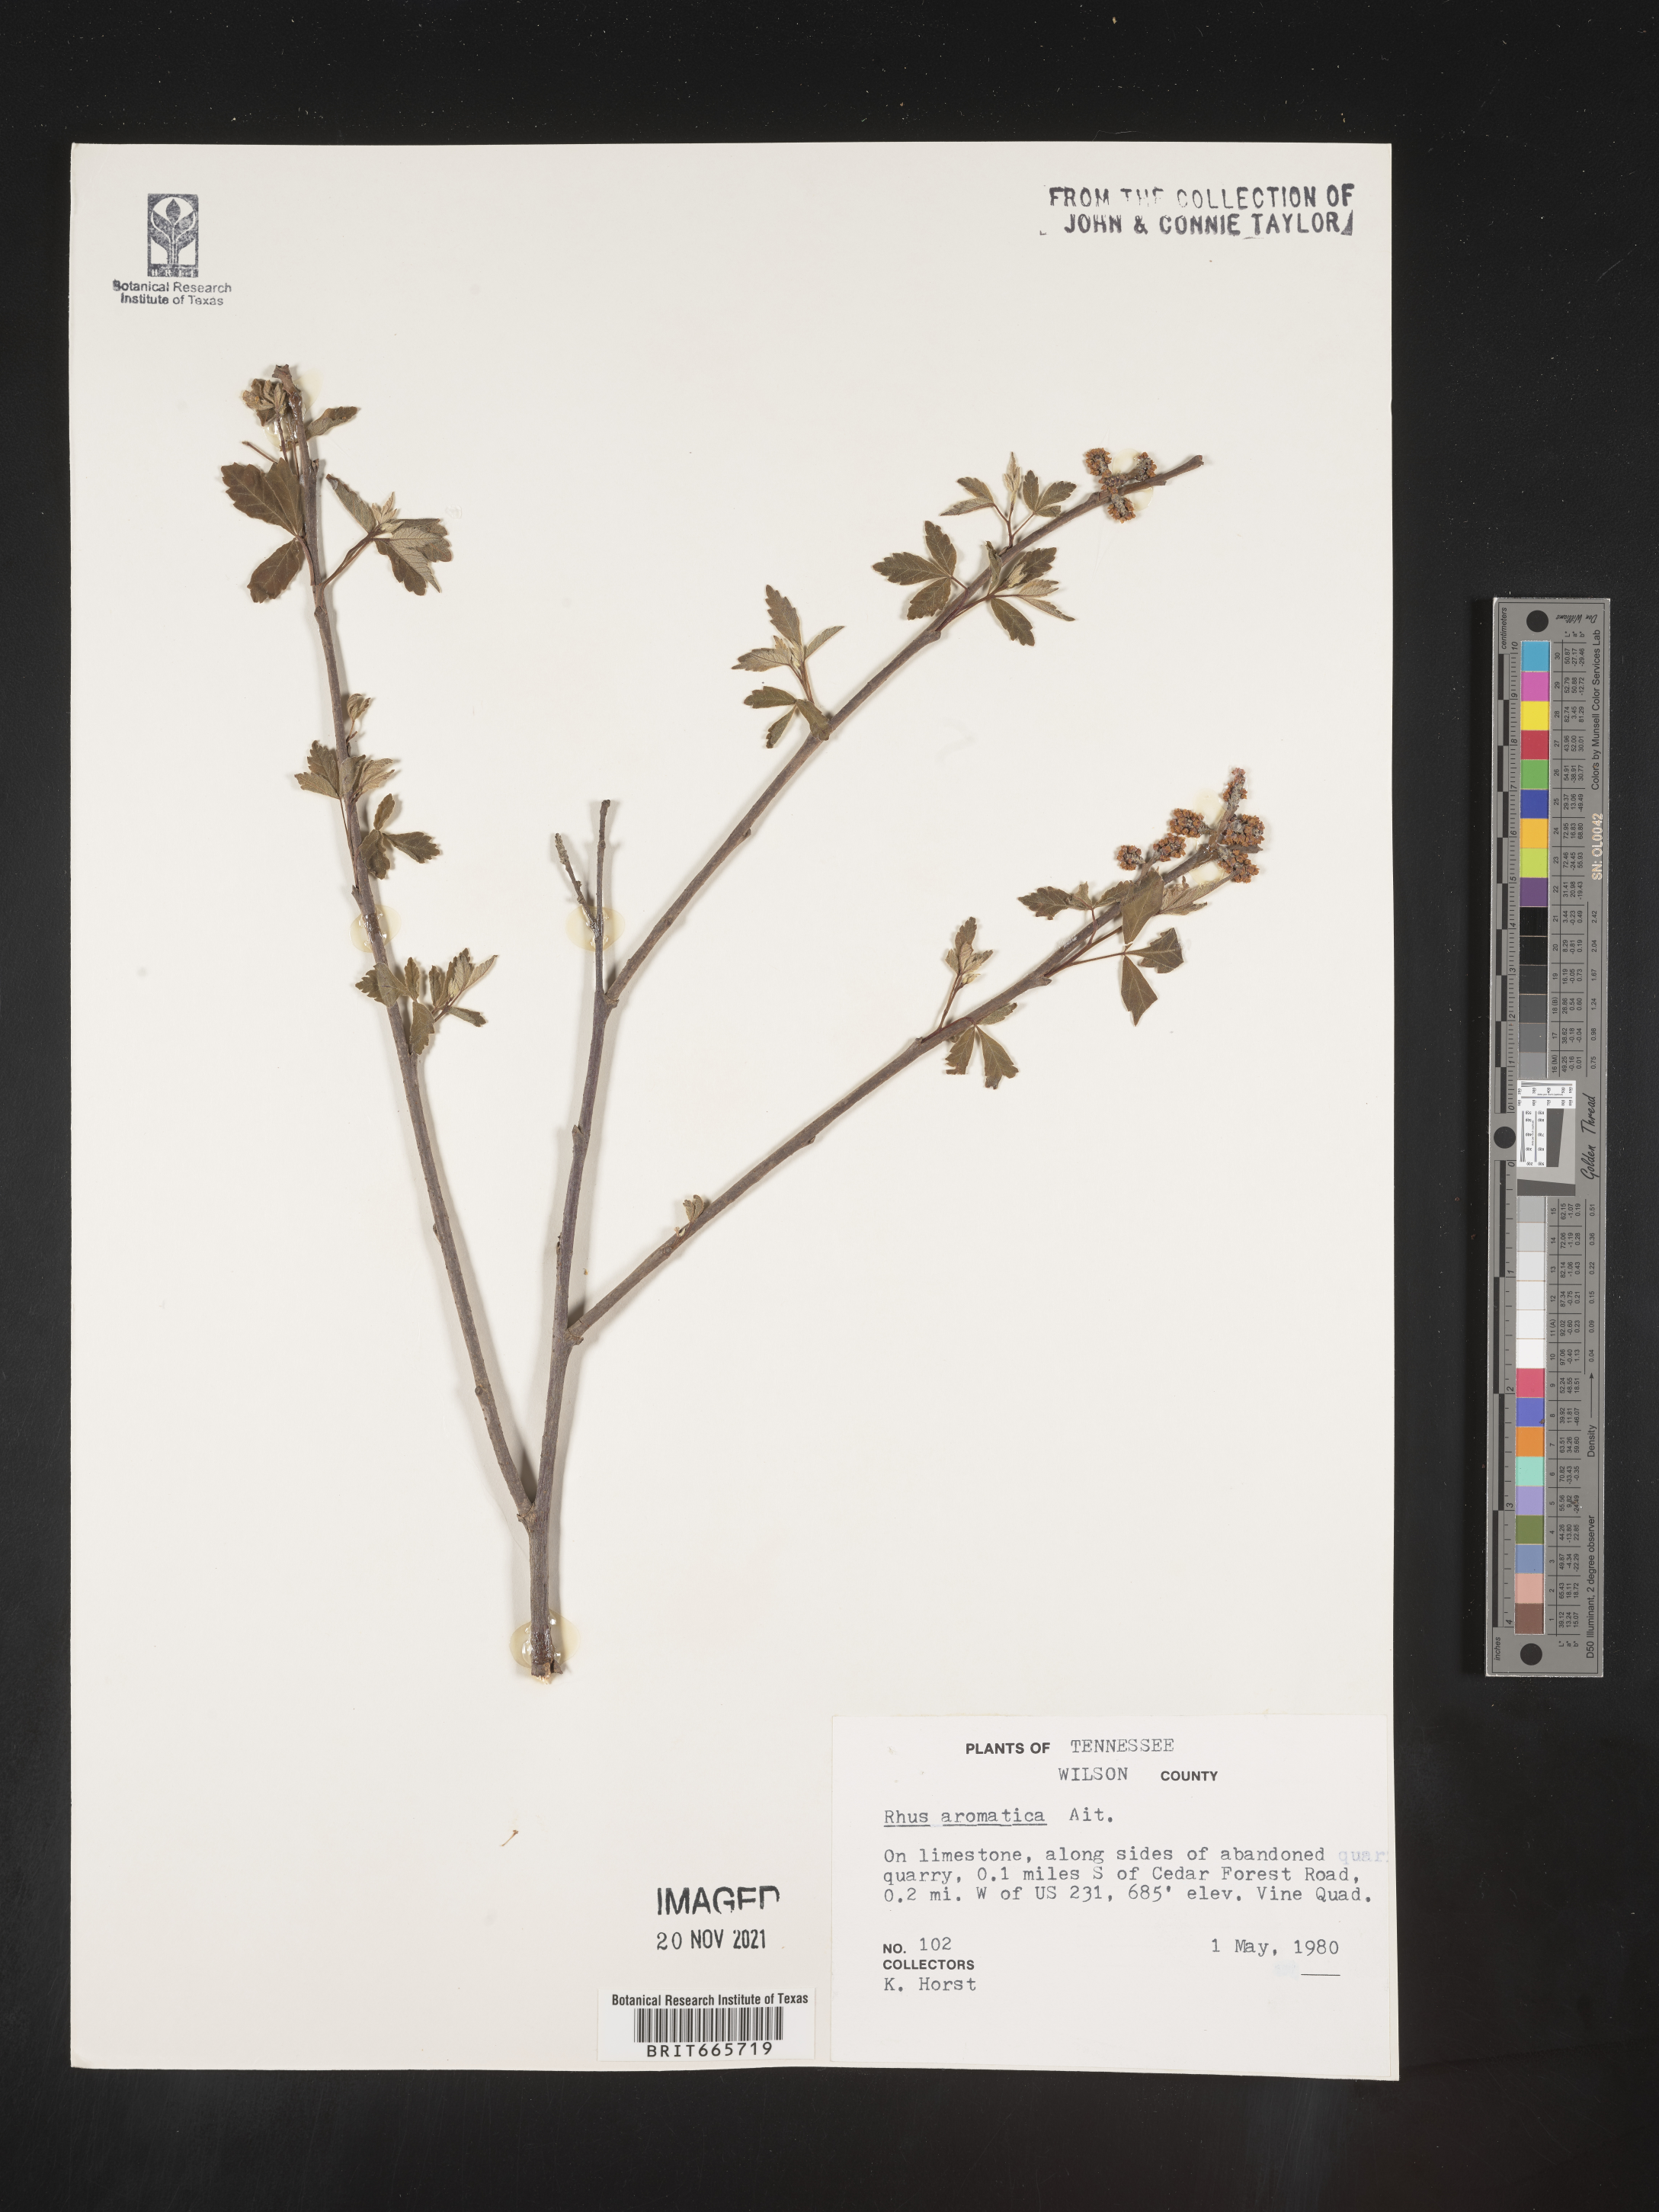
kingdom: Plantae
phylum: Tracheophyta
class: Magnoliopsida
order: Sapindales
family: Anacardiaceae
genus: Rhus
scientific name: Rhus aromatica
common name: Aromatic sumac
